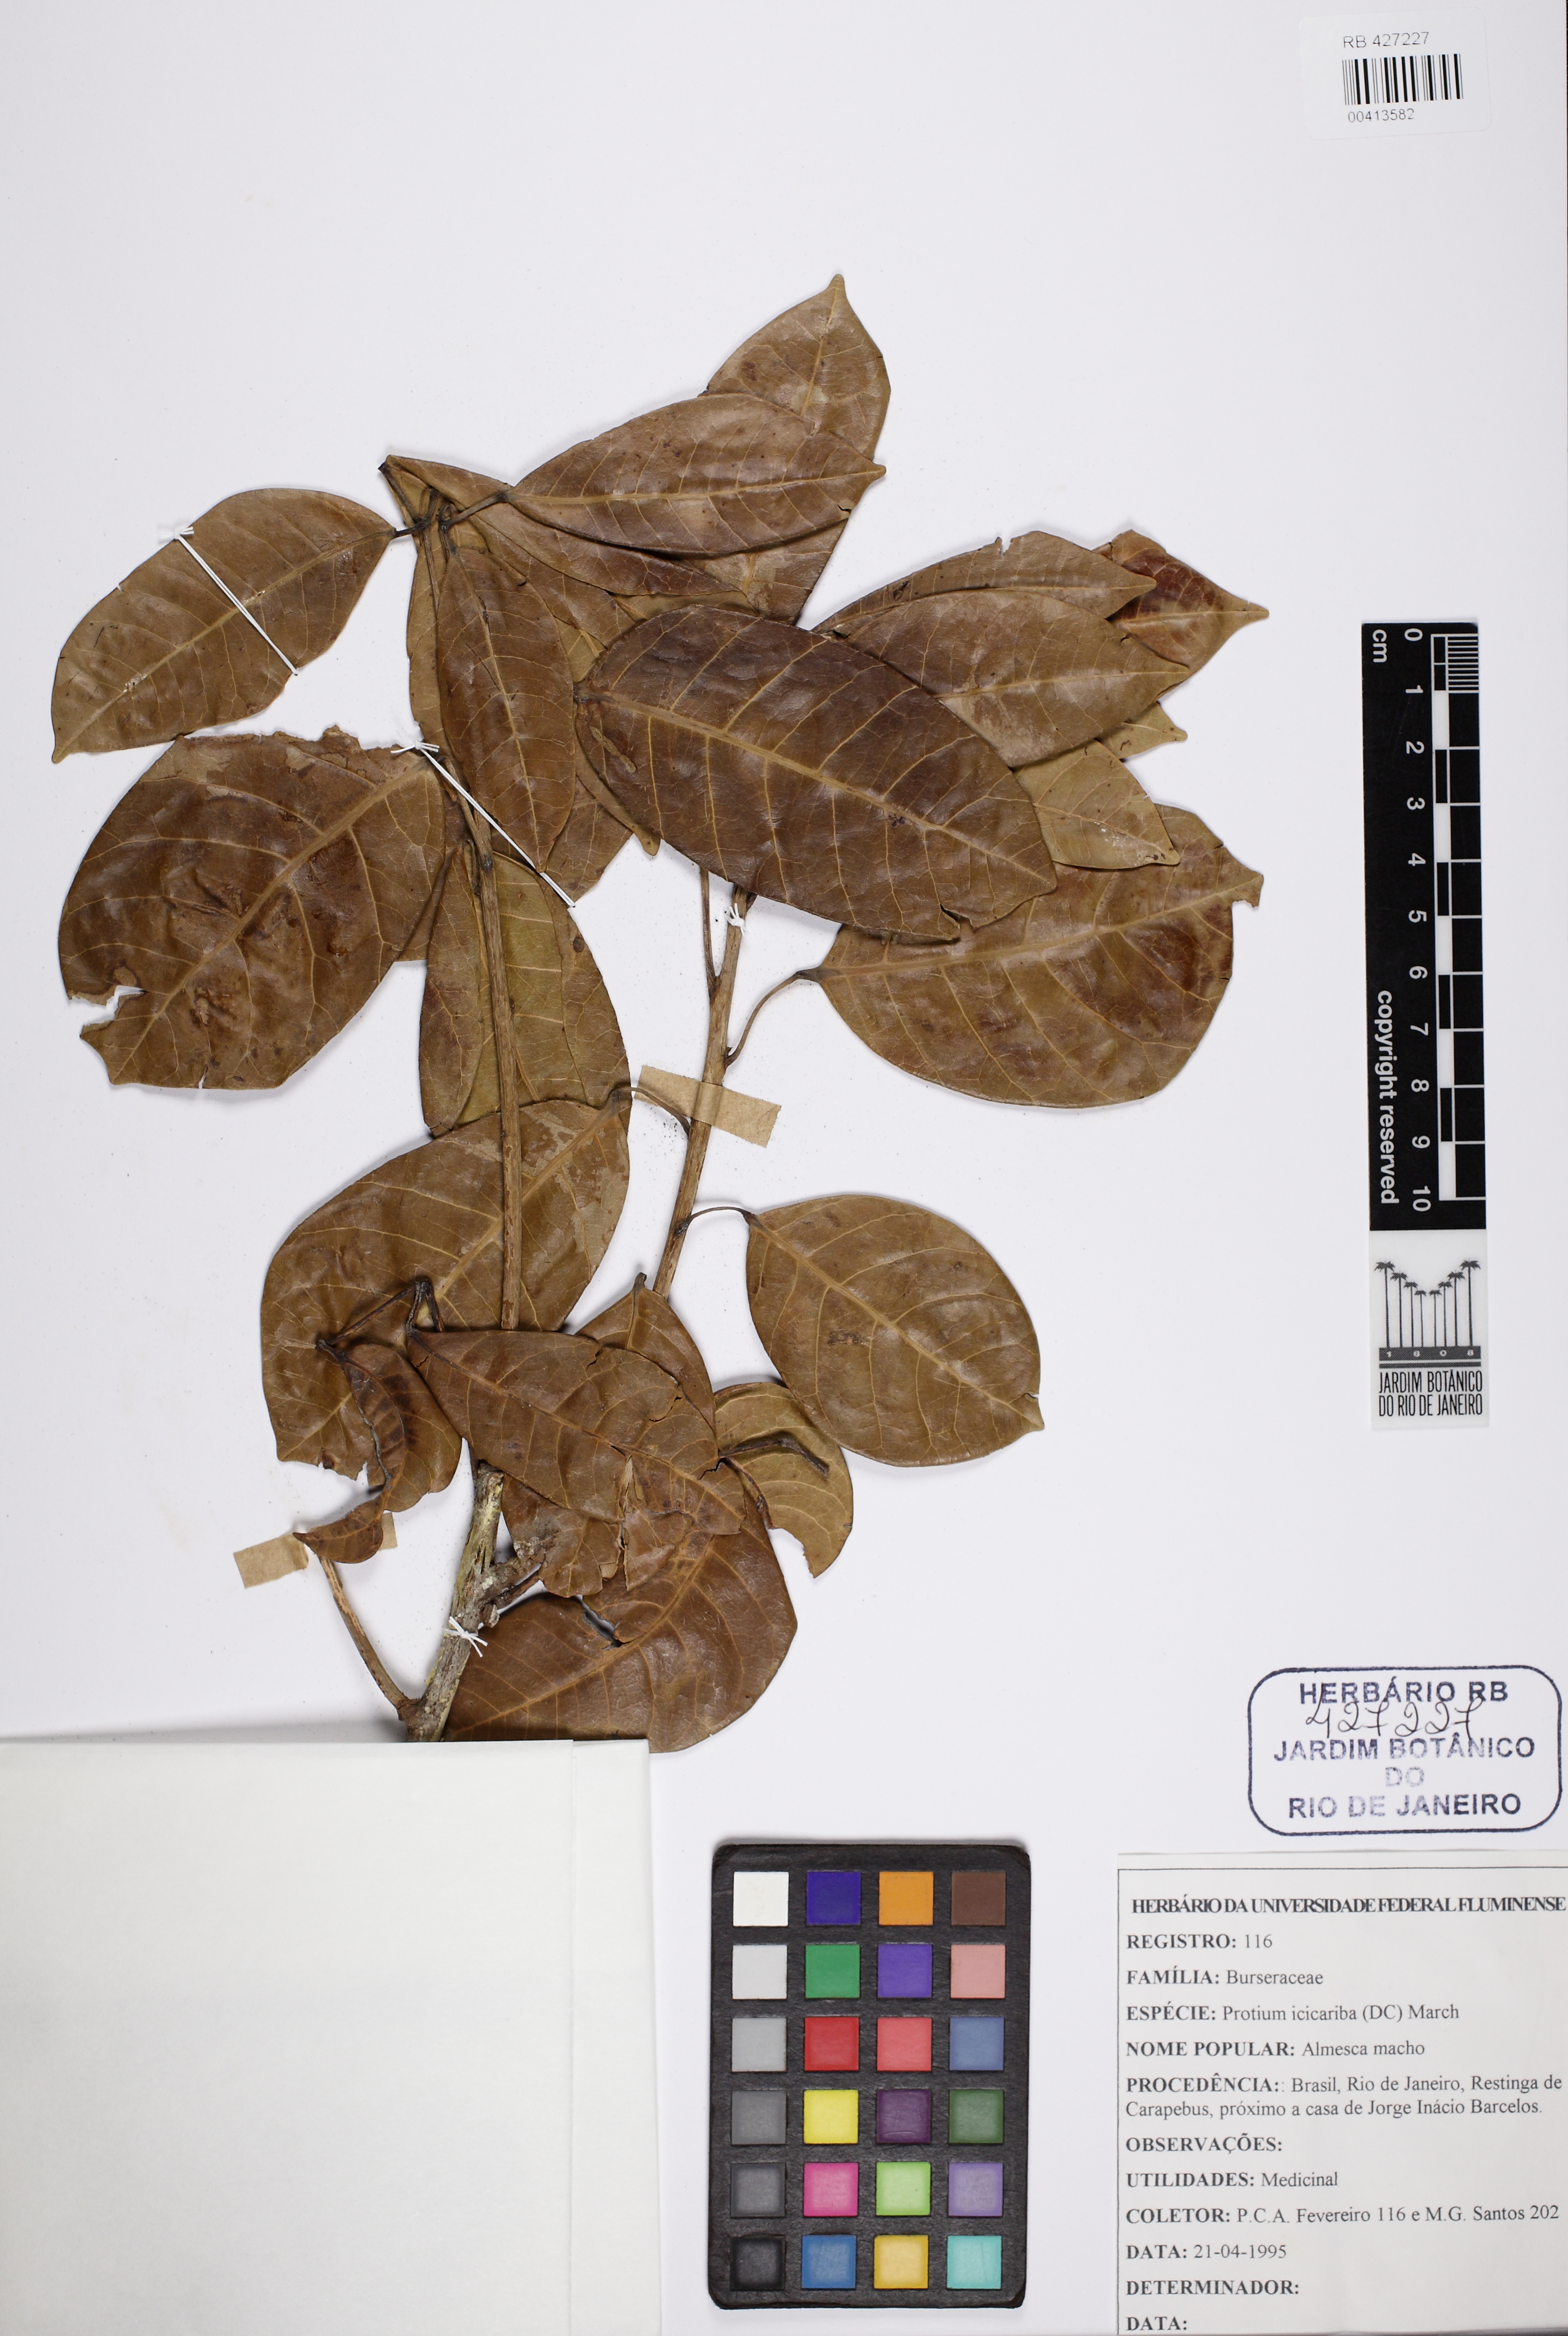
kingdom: Plantae
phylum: Tracheophyta
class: Magnoliopsida
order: Sapindales
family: Burseraceae
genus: Protium
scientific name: Protium icicariba
